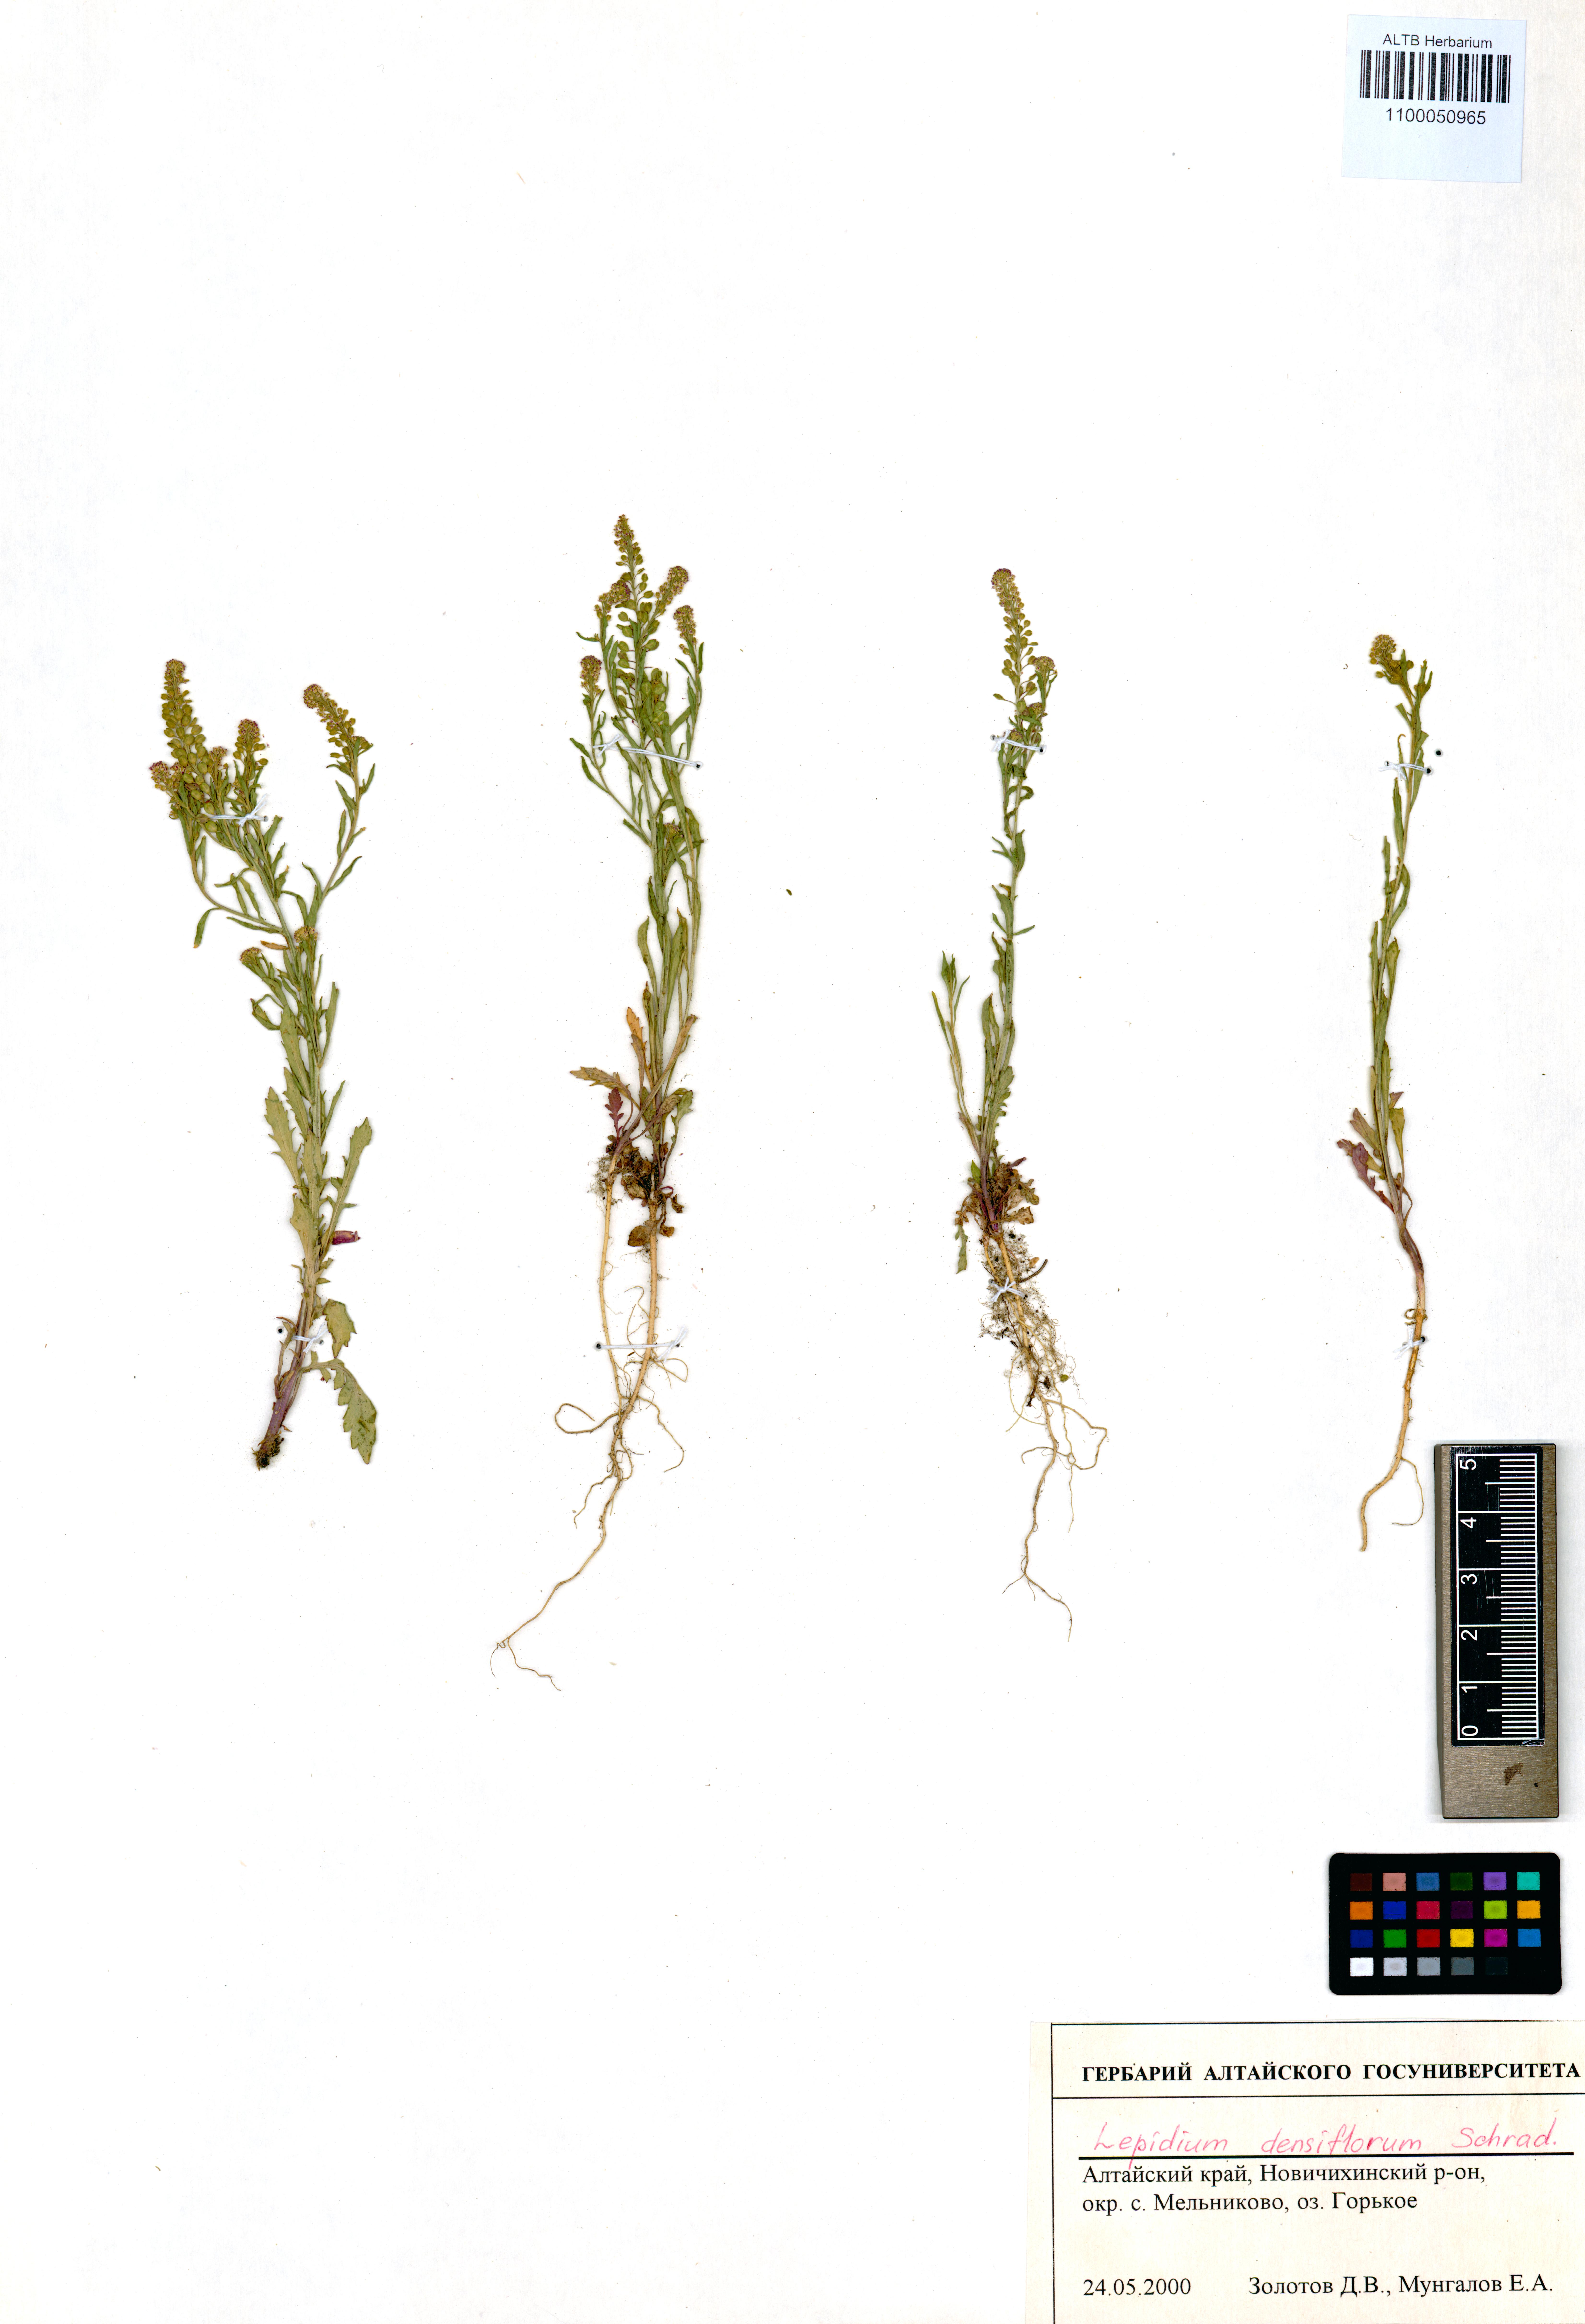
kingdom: Plantae
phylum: Tracheophyta
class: Magnoliopsida
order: Brassicales
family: Brassicaceae
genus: Lepidium
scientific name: Lepidium densiflorum
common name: Miner's pepperwort
